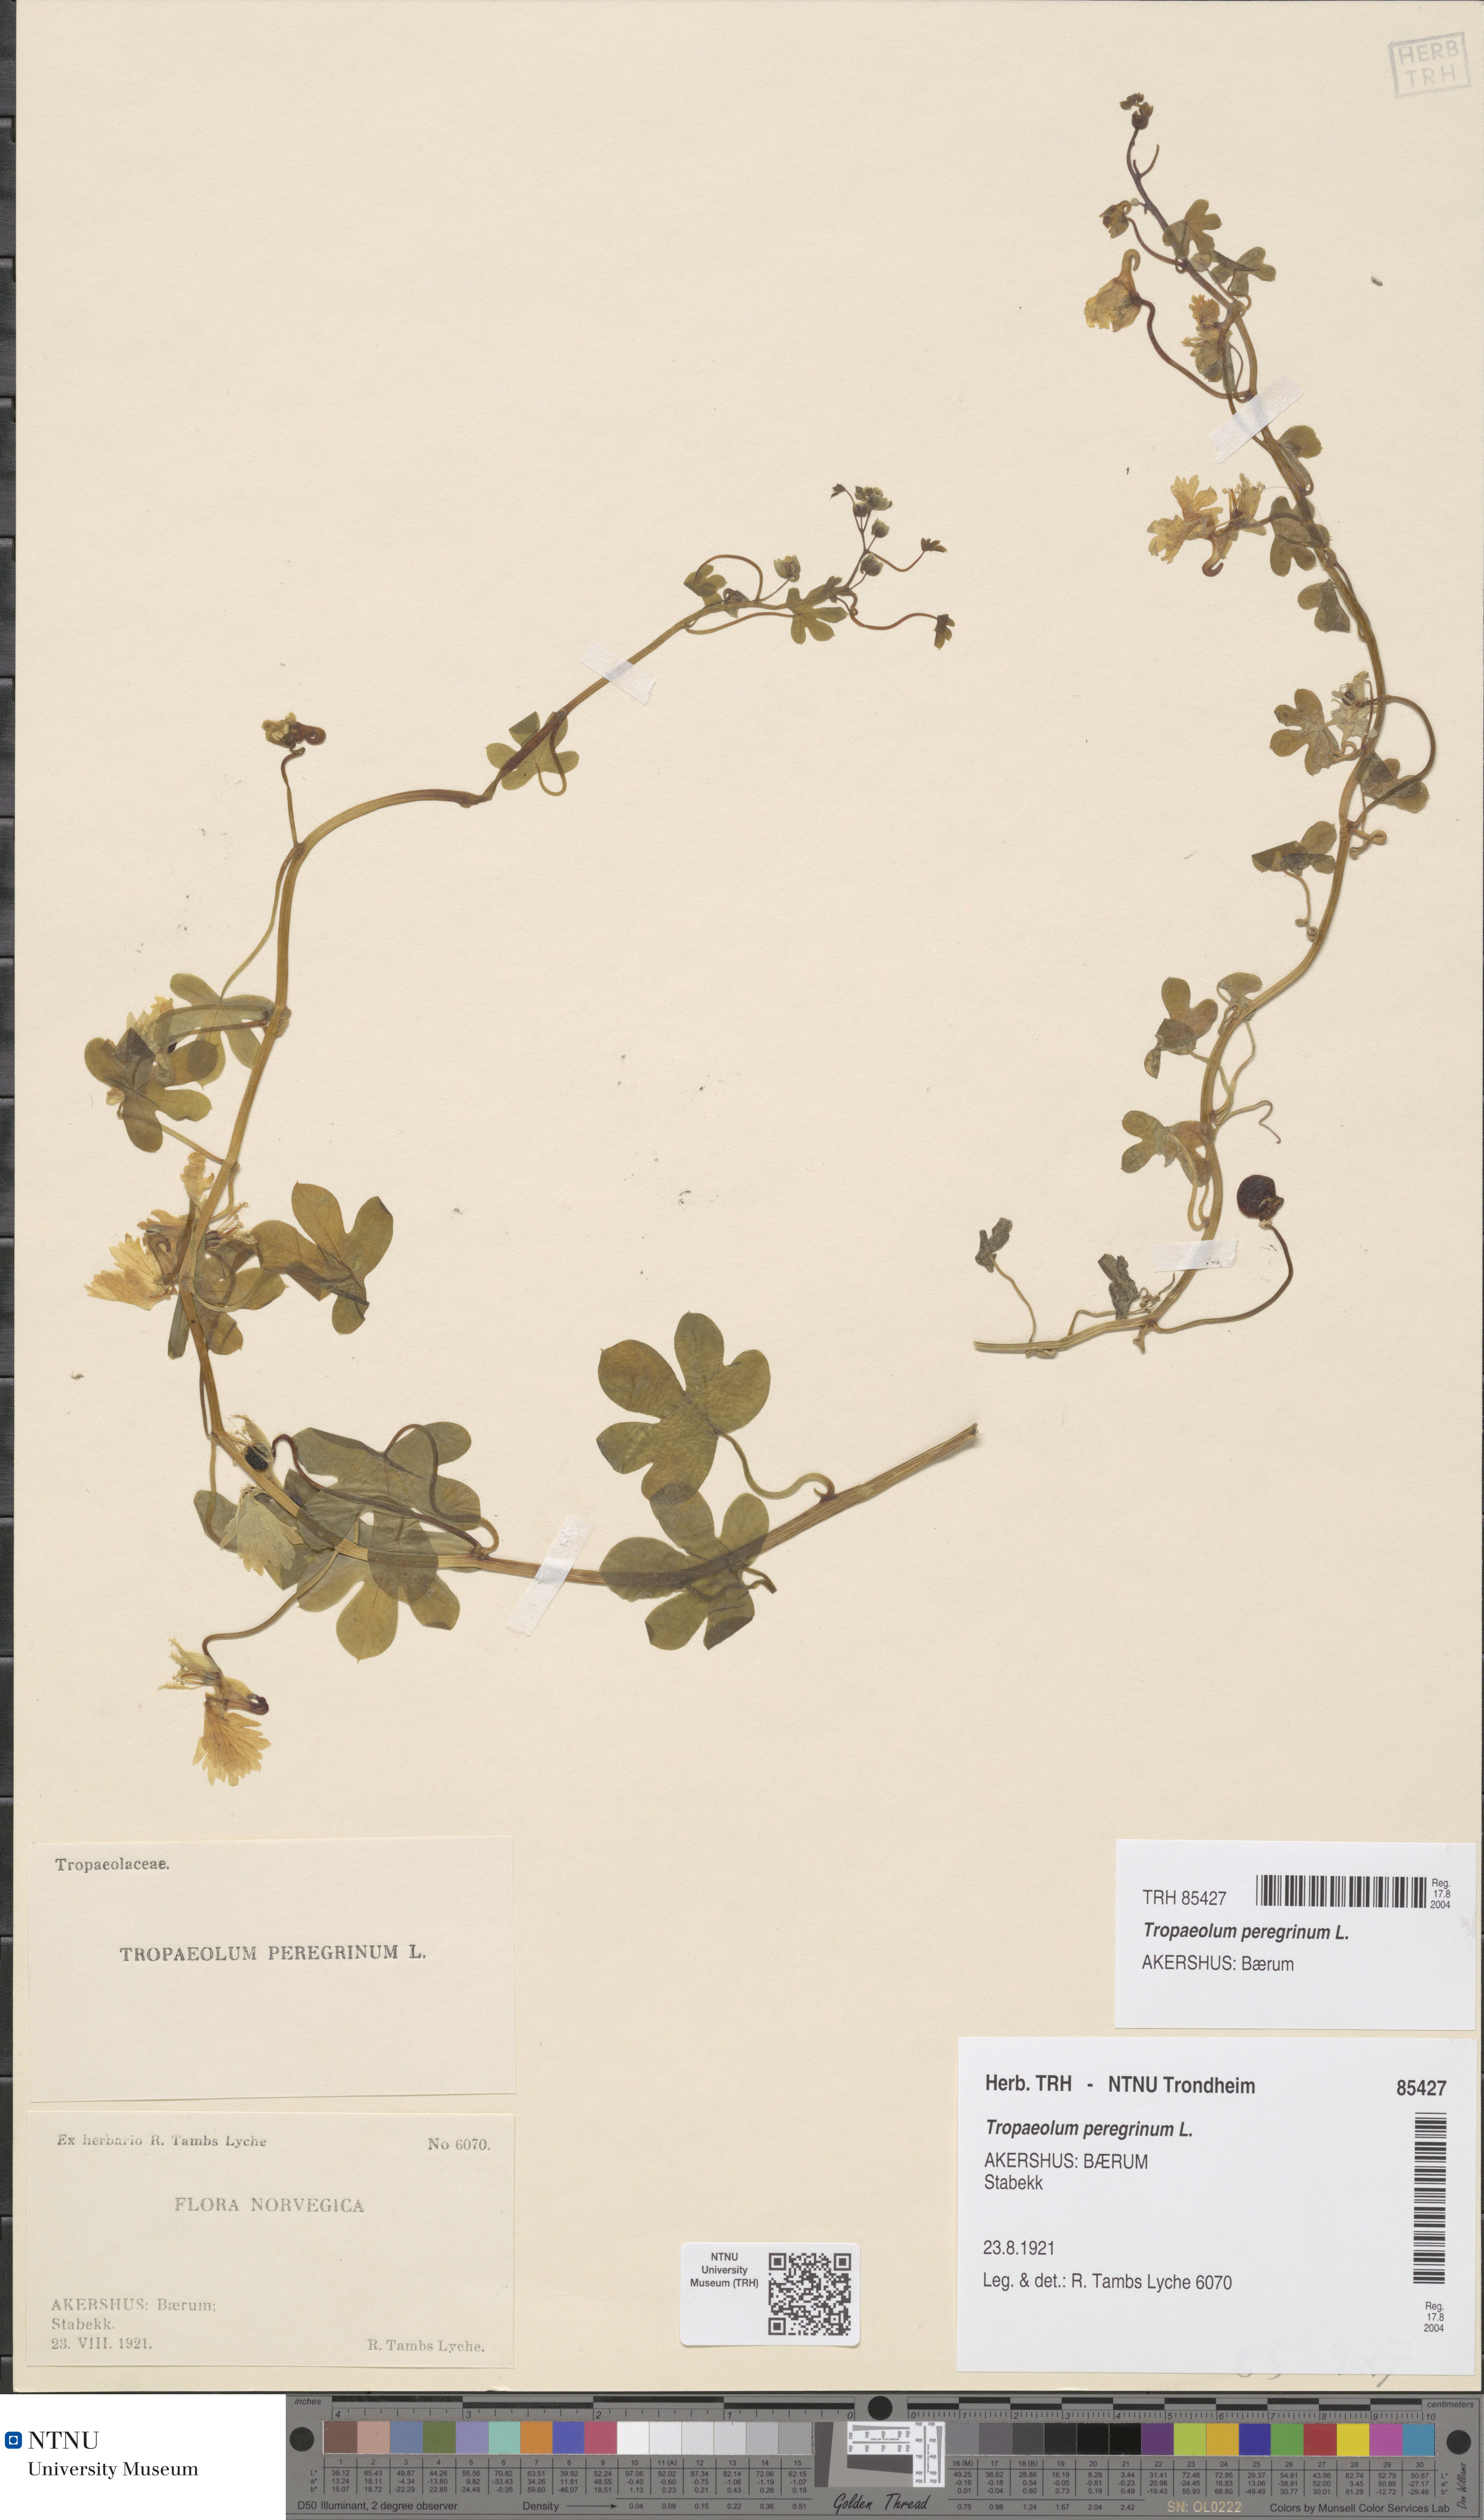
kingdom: Plantae
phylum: Tracheophyta
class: Magnoliopsida
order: Brassicales
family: Tropaeolaceae
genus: Tropaeolum
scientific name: Tropaeolum peregrinum
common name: Canary-creeper
